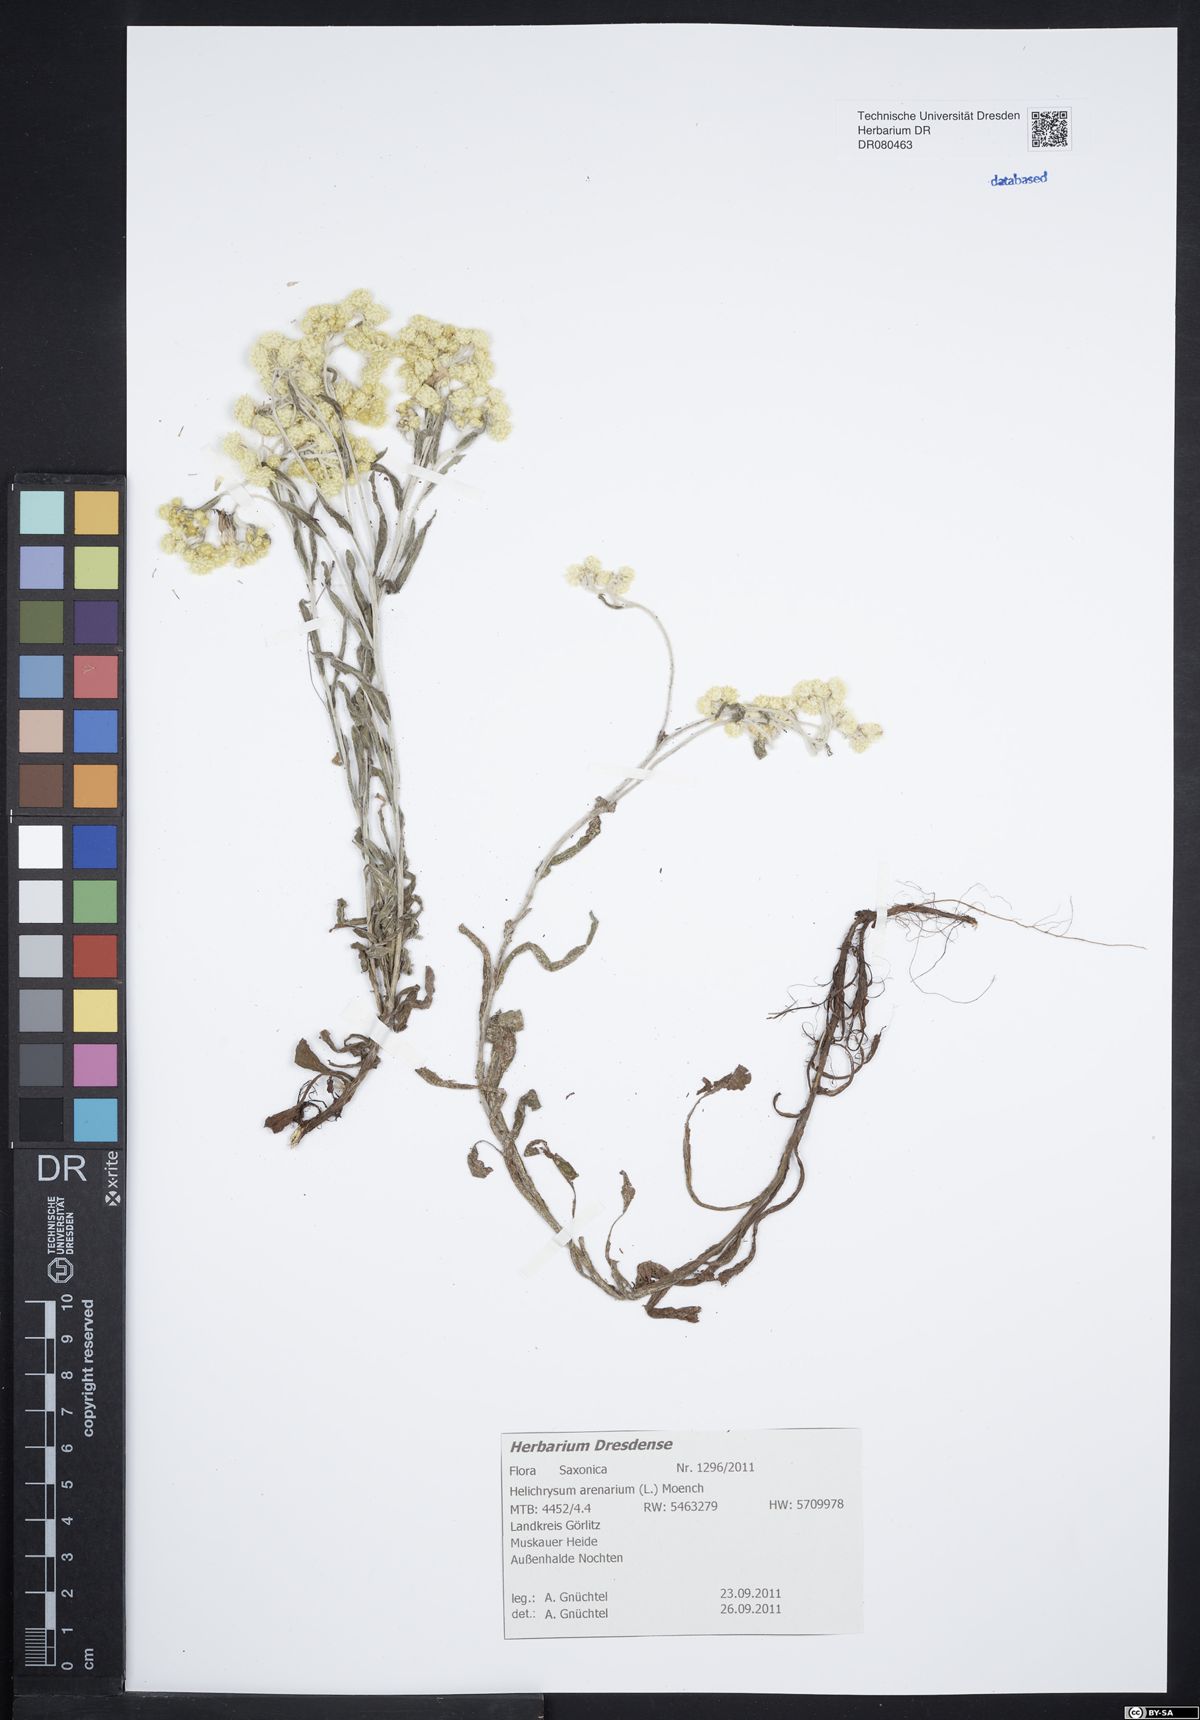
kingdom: Plantae
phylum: Tracheophyta
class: Magnoliopsida
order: Asterales
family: Asteraceae
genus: Helichrysum
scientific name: Helichrysum arenarium
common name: Strawflower
